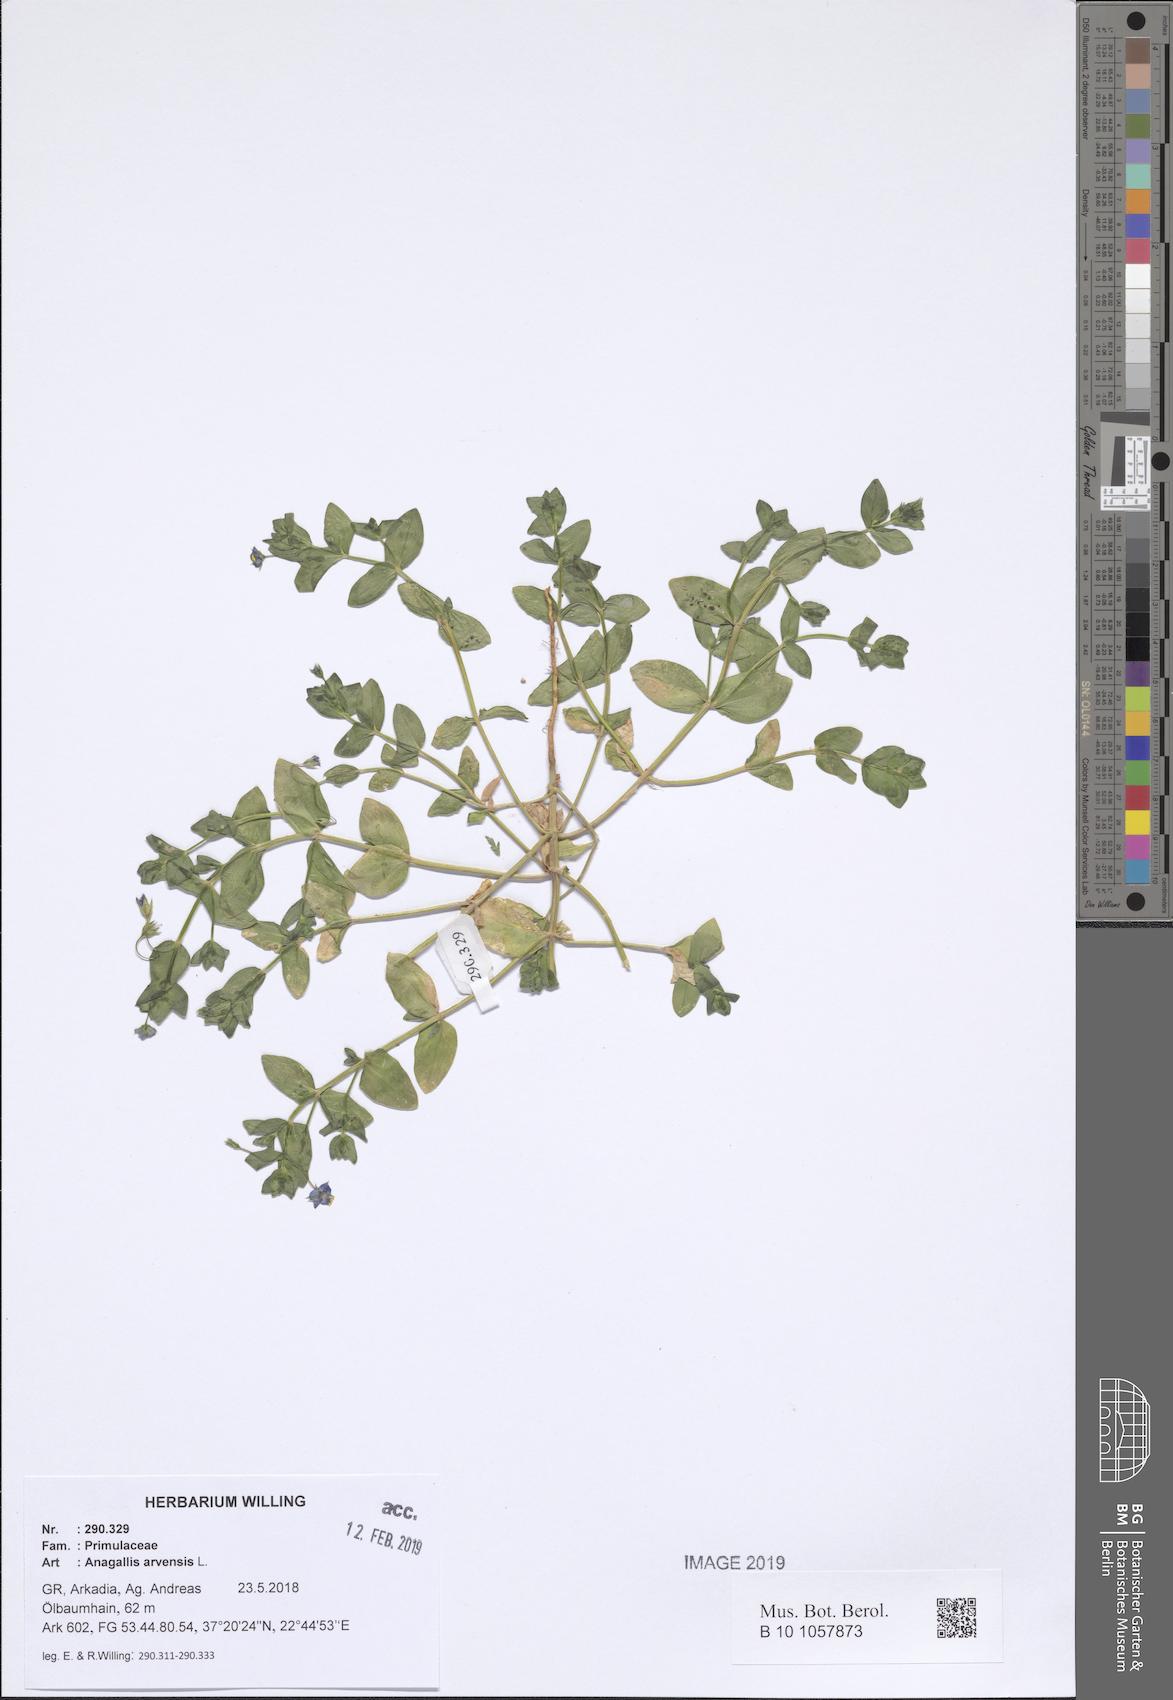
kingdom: Plantae
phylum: Tracheophyta
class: Magnoliopsida
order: Ericales
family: Primulaceae
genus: Lysimachia
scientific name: Lysimachia arvensis
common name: Scarlet pimpernel
